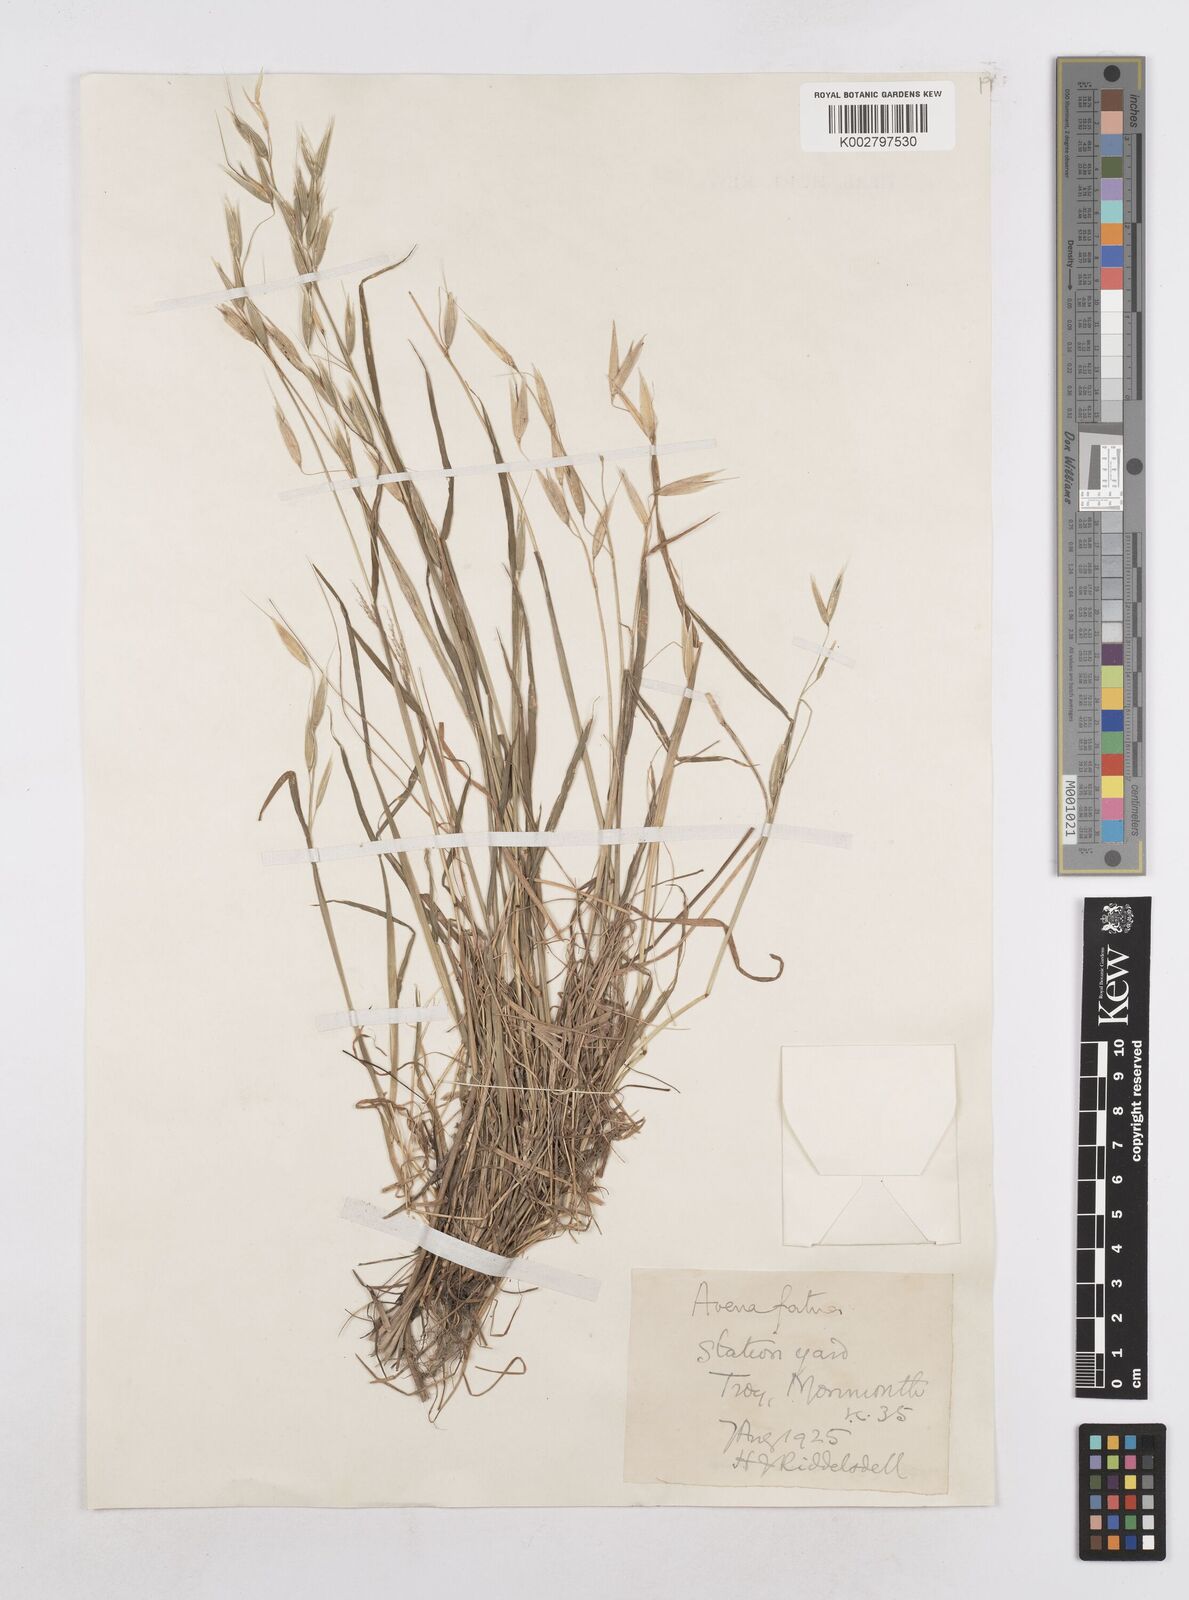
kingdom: Plantae
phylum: Tracheophyta
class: Liliopsida
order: Poales
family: Poaceae
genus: Avena
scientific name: Avena fatua
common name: Wild oat
